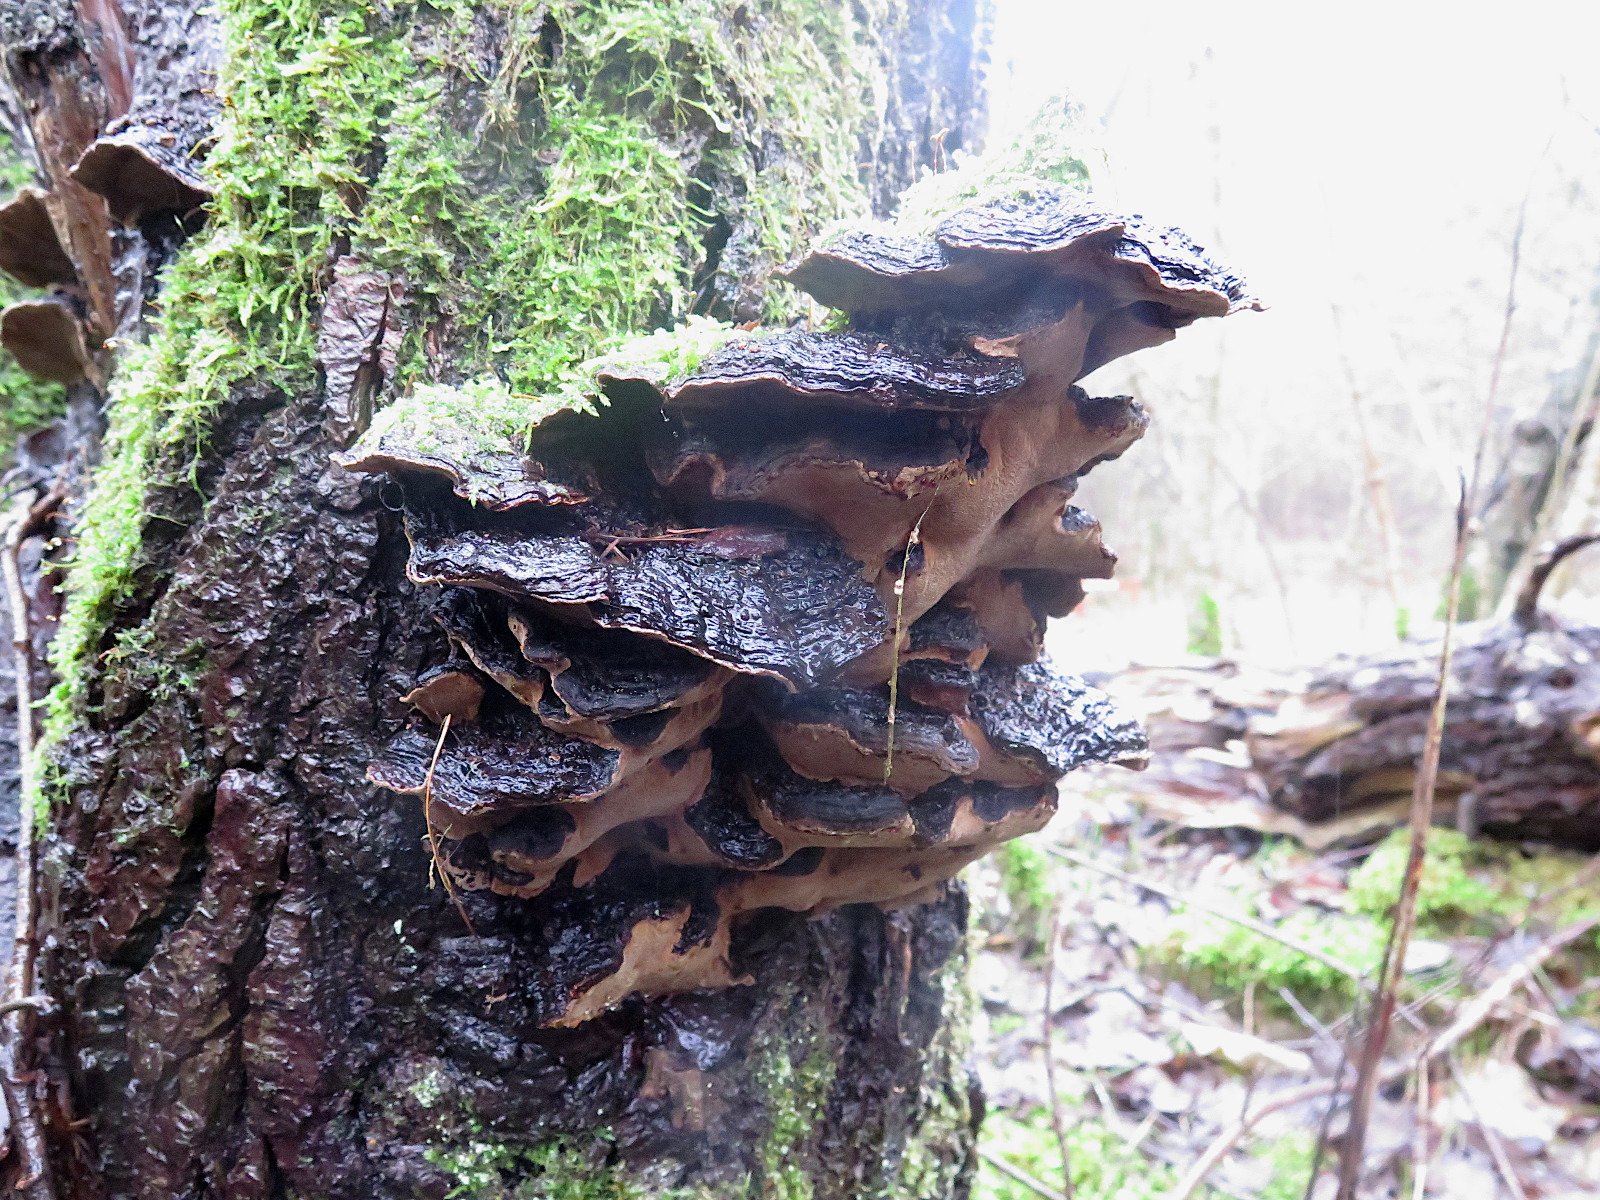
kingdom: Fungi
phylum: Basidiomycota
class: Agaricomycetes
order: Hymenochaetales
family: Hymenochaetaceae
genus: Phellinopsis
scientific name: Phellinopsis conchata
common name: pile-ildporesvamp
